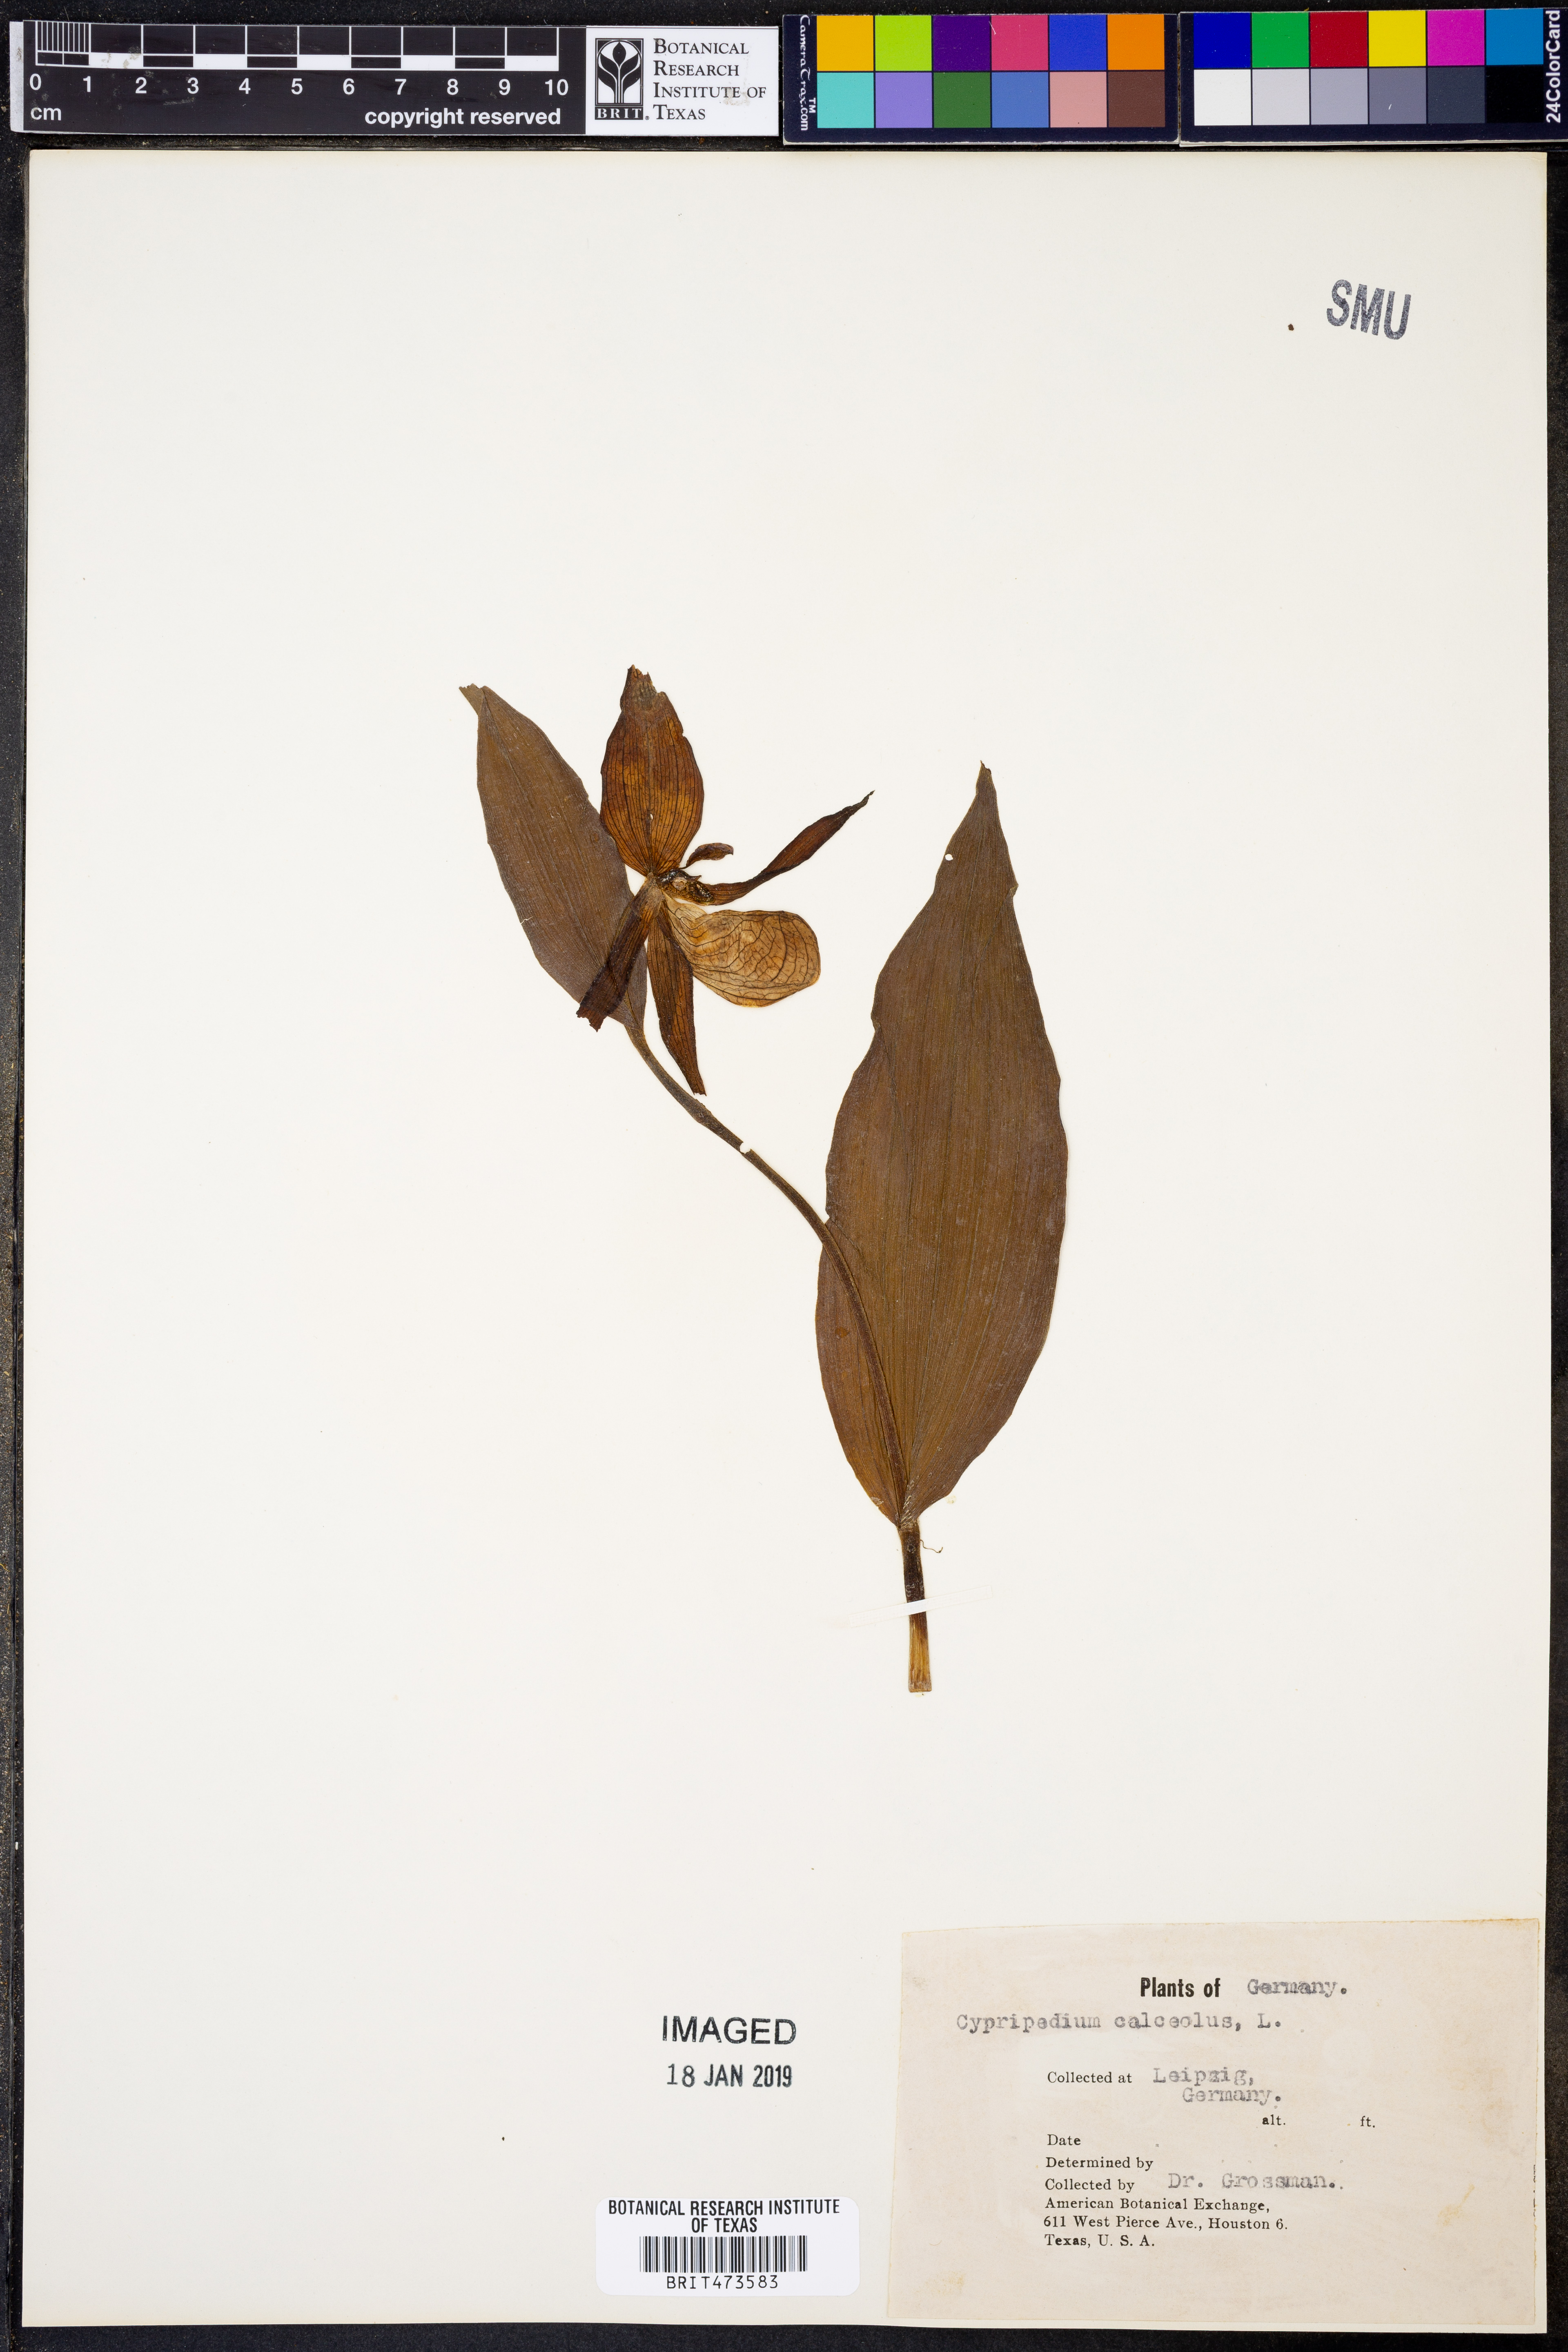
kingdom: Plantae
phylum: Tracheophyta
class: Liliopsida
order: Asparagales
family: Orchidaceae
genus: Cypripedium
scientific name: Cypripedium calceolus
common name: Lady's-slipper
